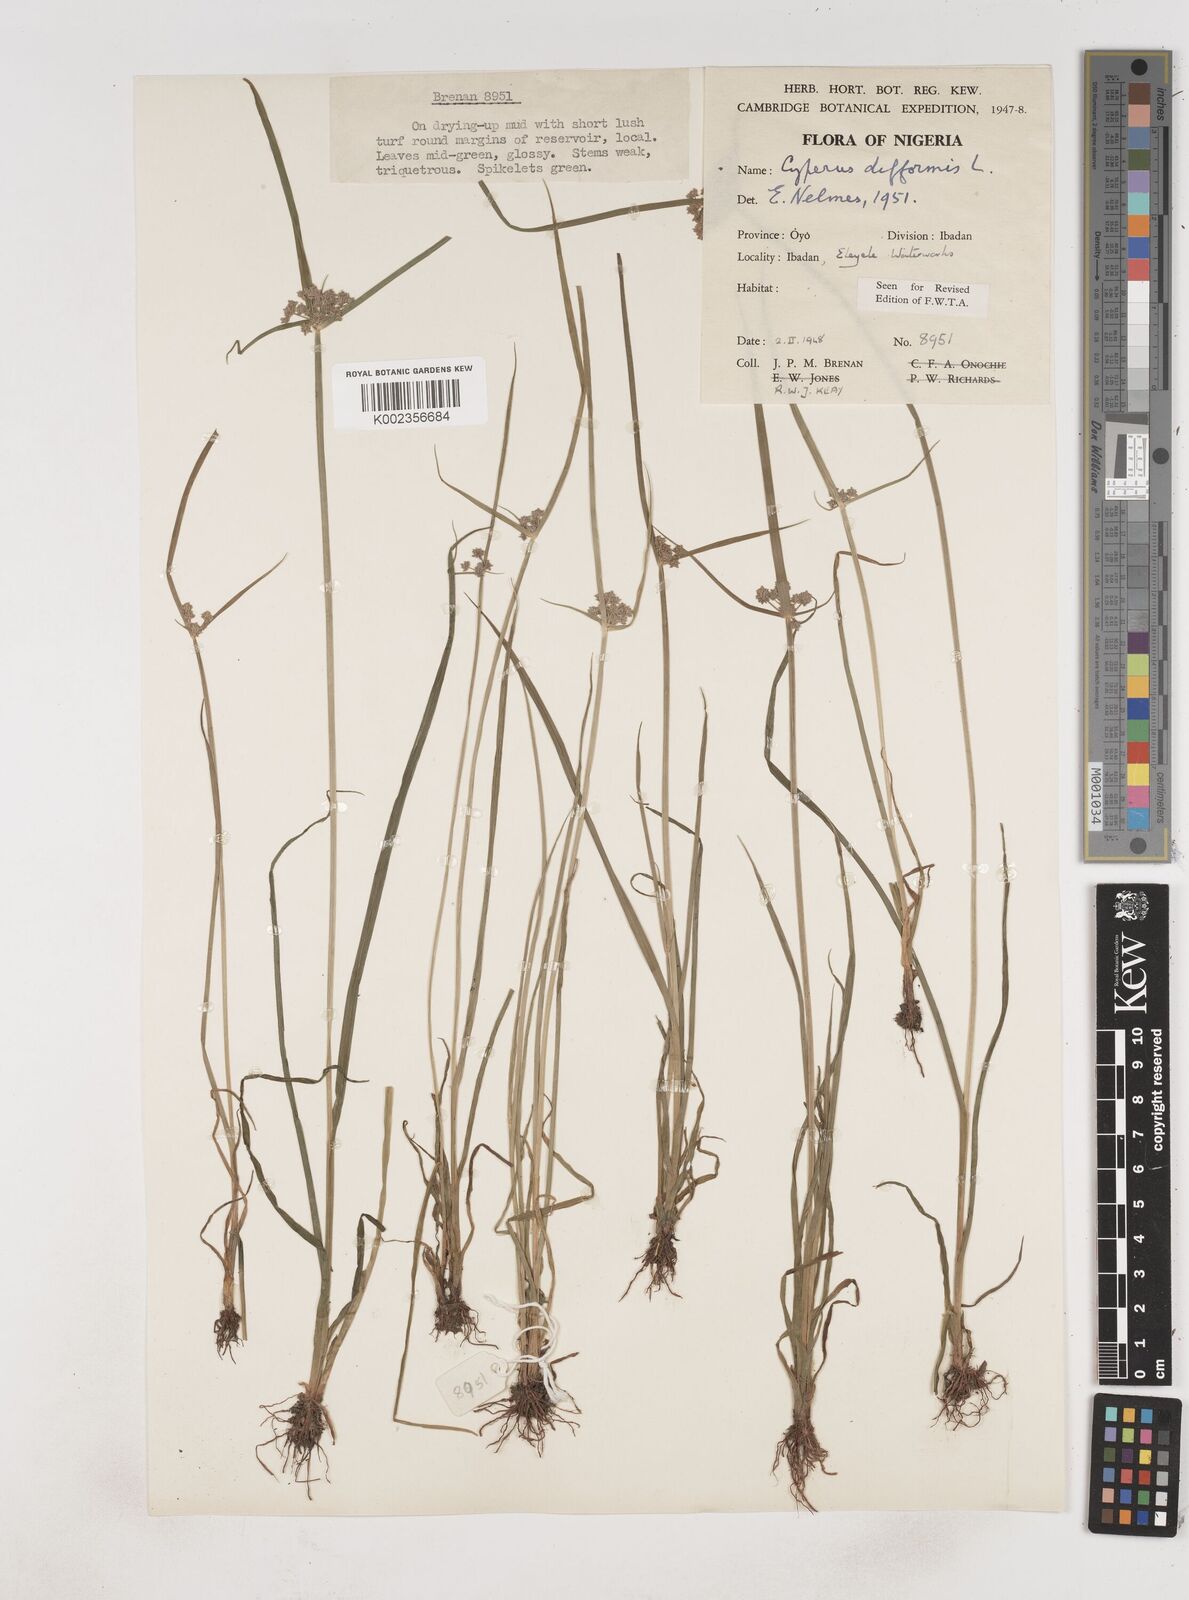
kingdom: Plantae
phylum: Tracheophyta
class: Liliopsida
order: Poales
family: Cyperaceae
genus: Cyperus
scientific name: Cyperus difformis
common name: Variable flatsedge
